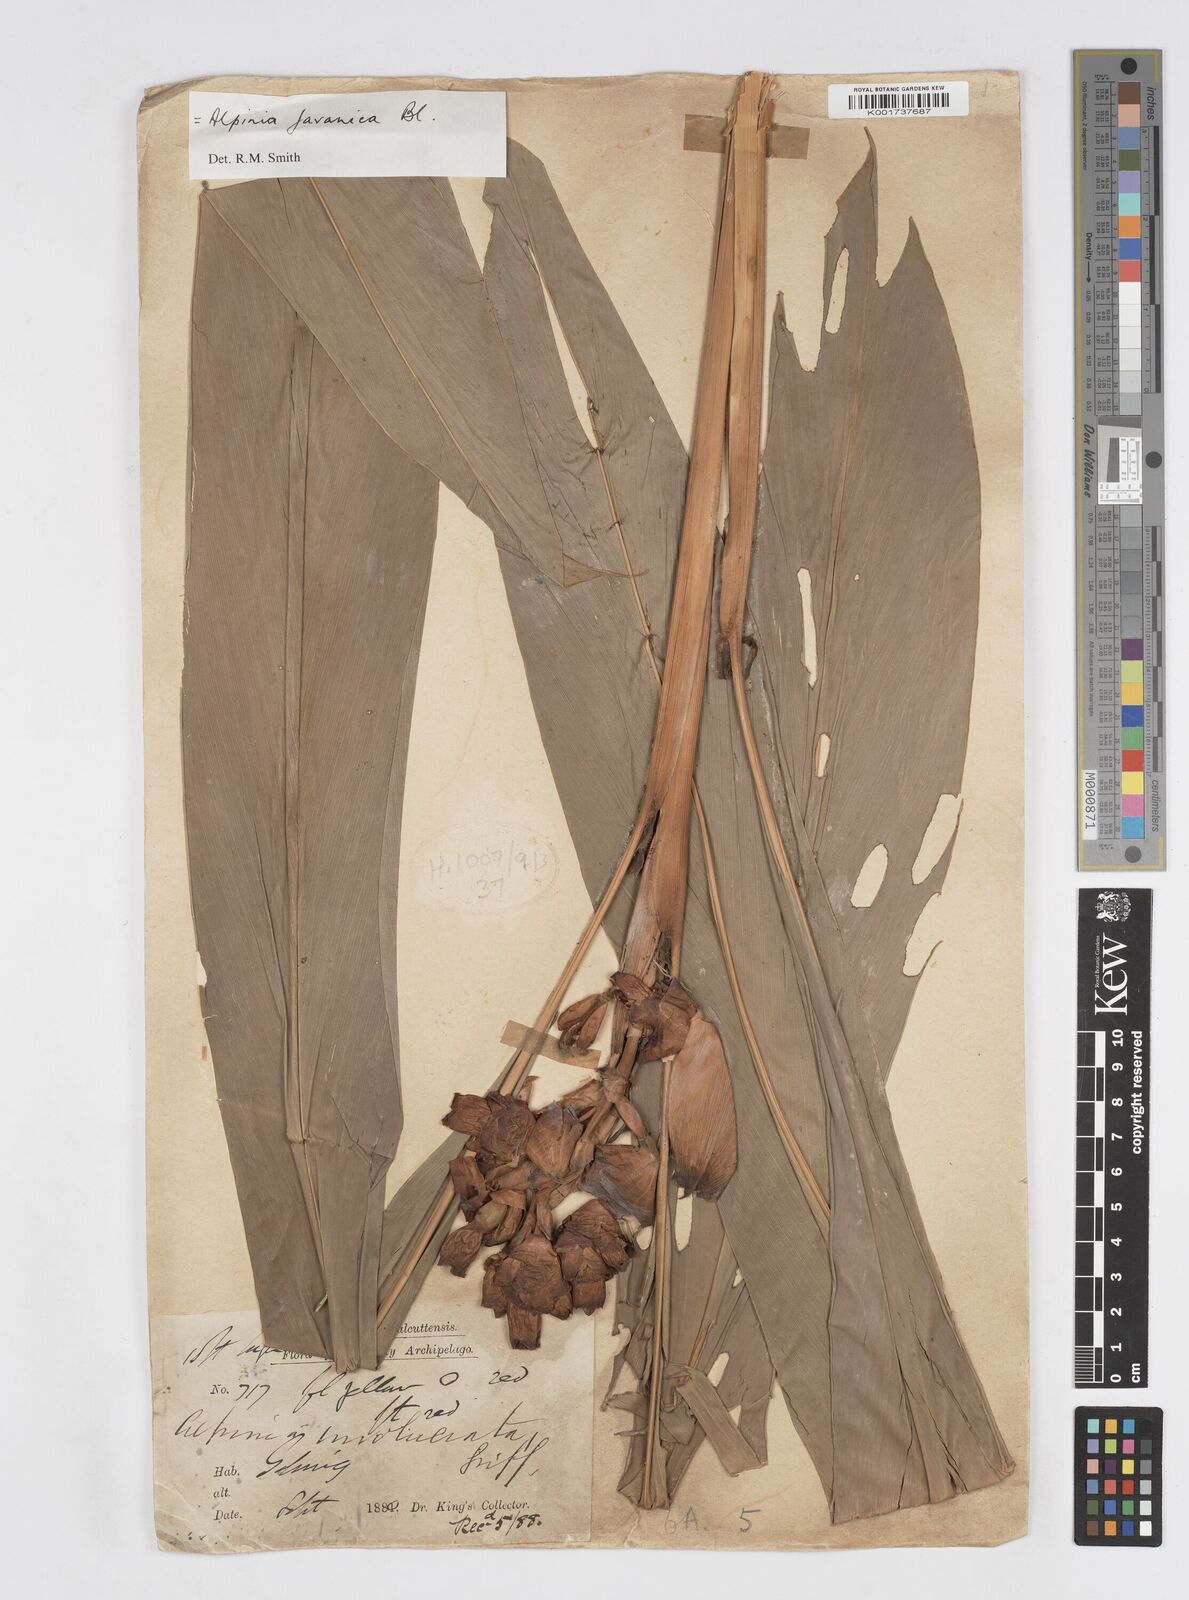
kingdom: Plantae
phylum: Tracheophyta
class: Liliopsida
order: Zingiberales
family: Zingiberaceae
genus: Alpinia
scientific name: Alpinia javanica
